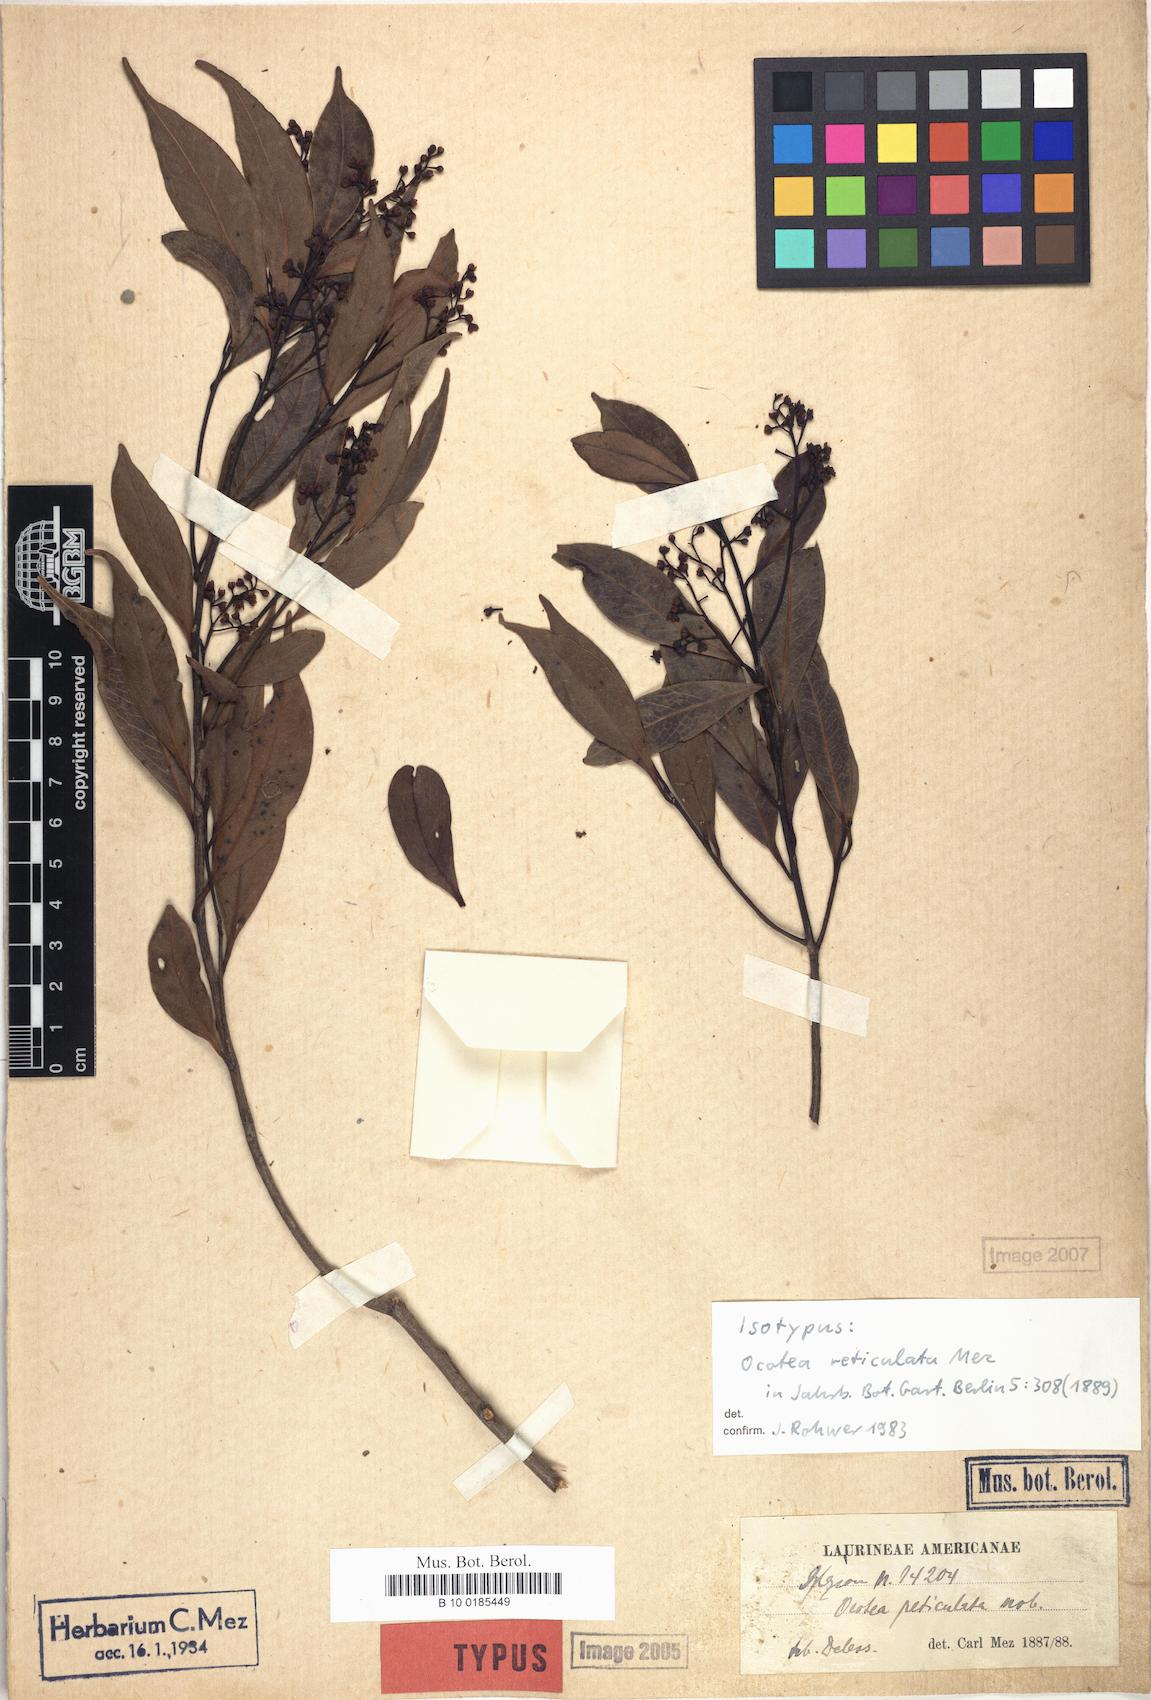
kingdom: Plantae
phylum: Tracheophyta
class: Magnoliopsida
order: Laurales
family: Lauraceae
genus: Mespilodaphne
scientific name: Mespilodaphne corymbosa
